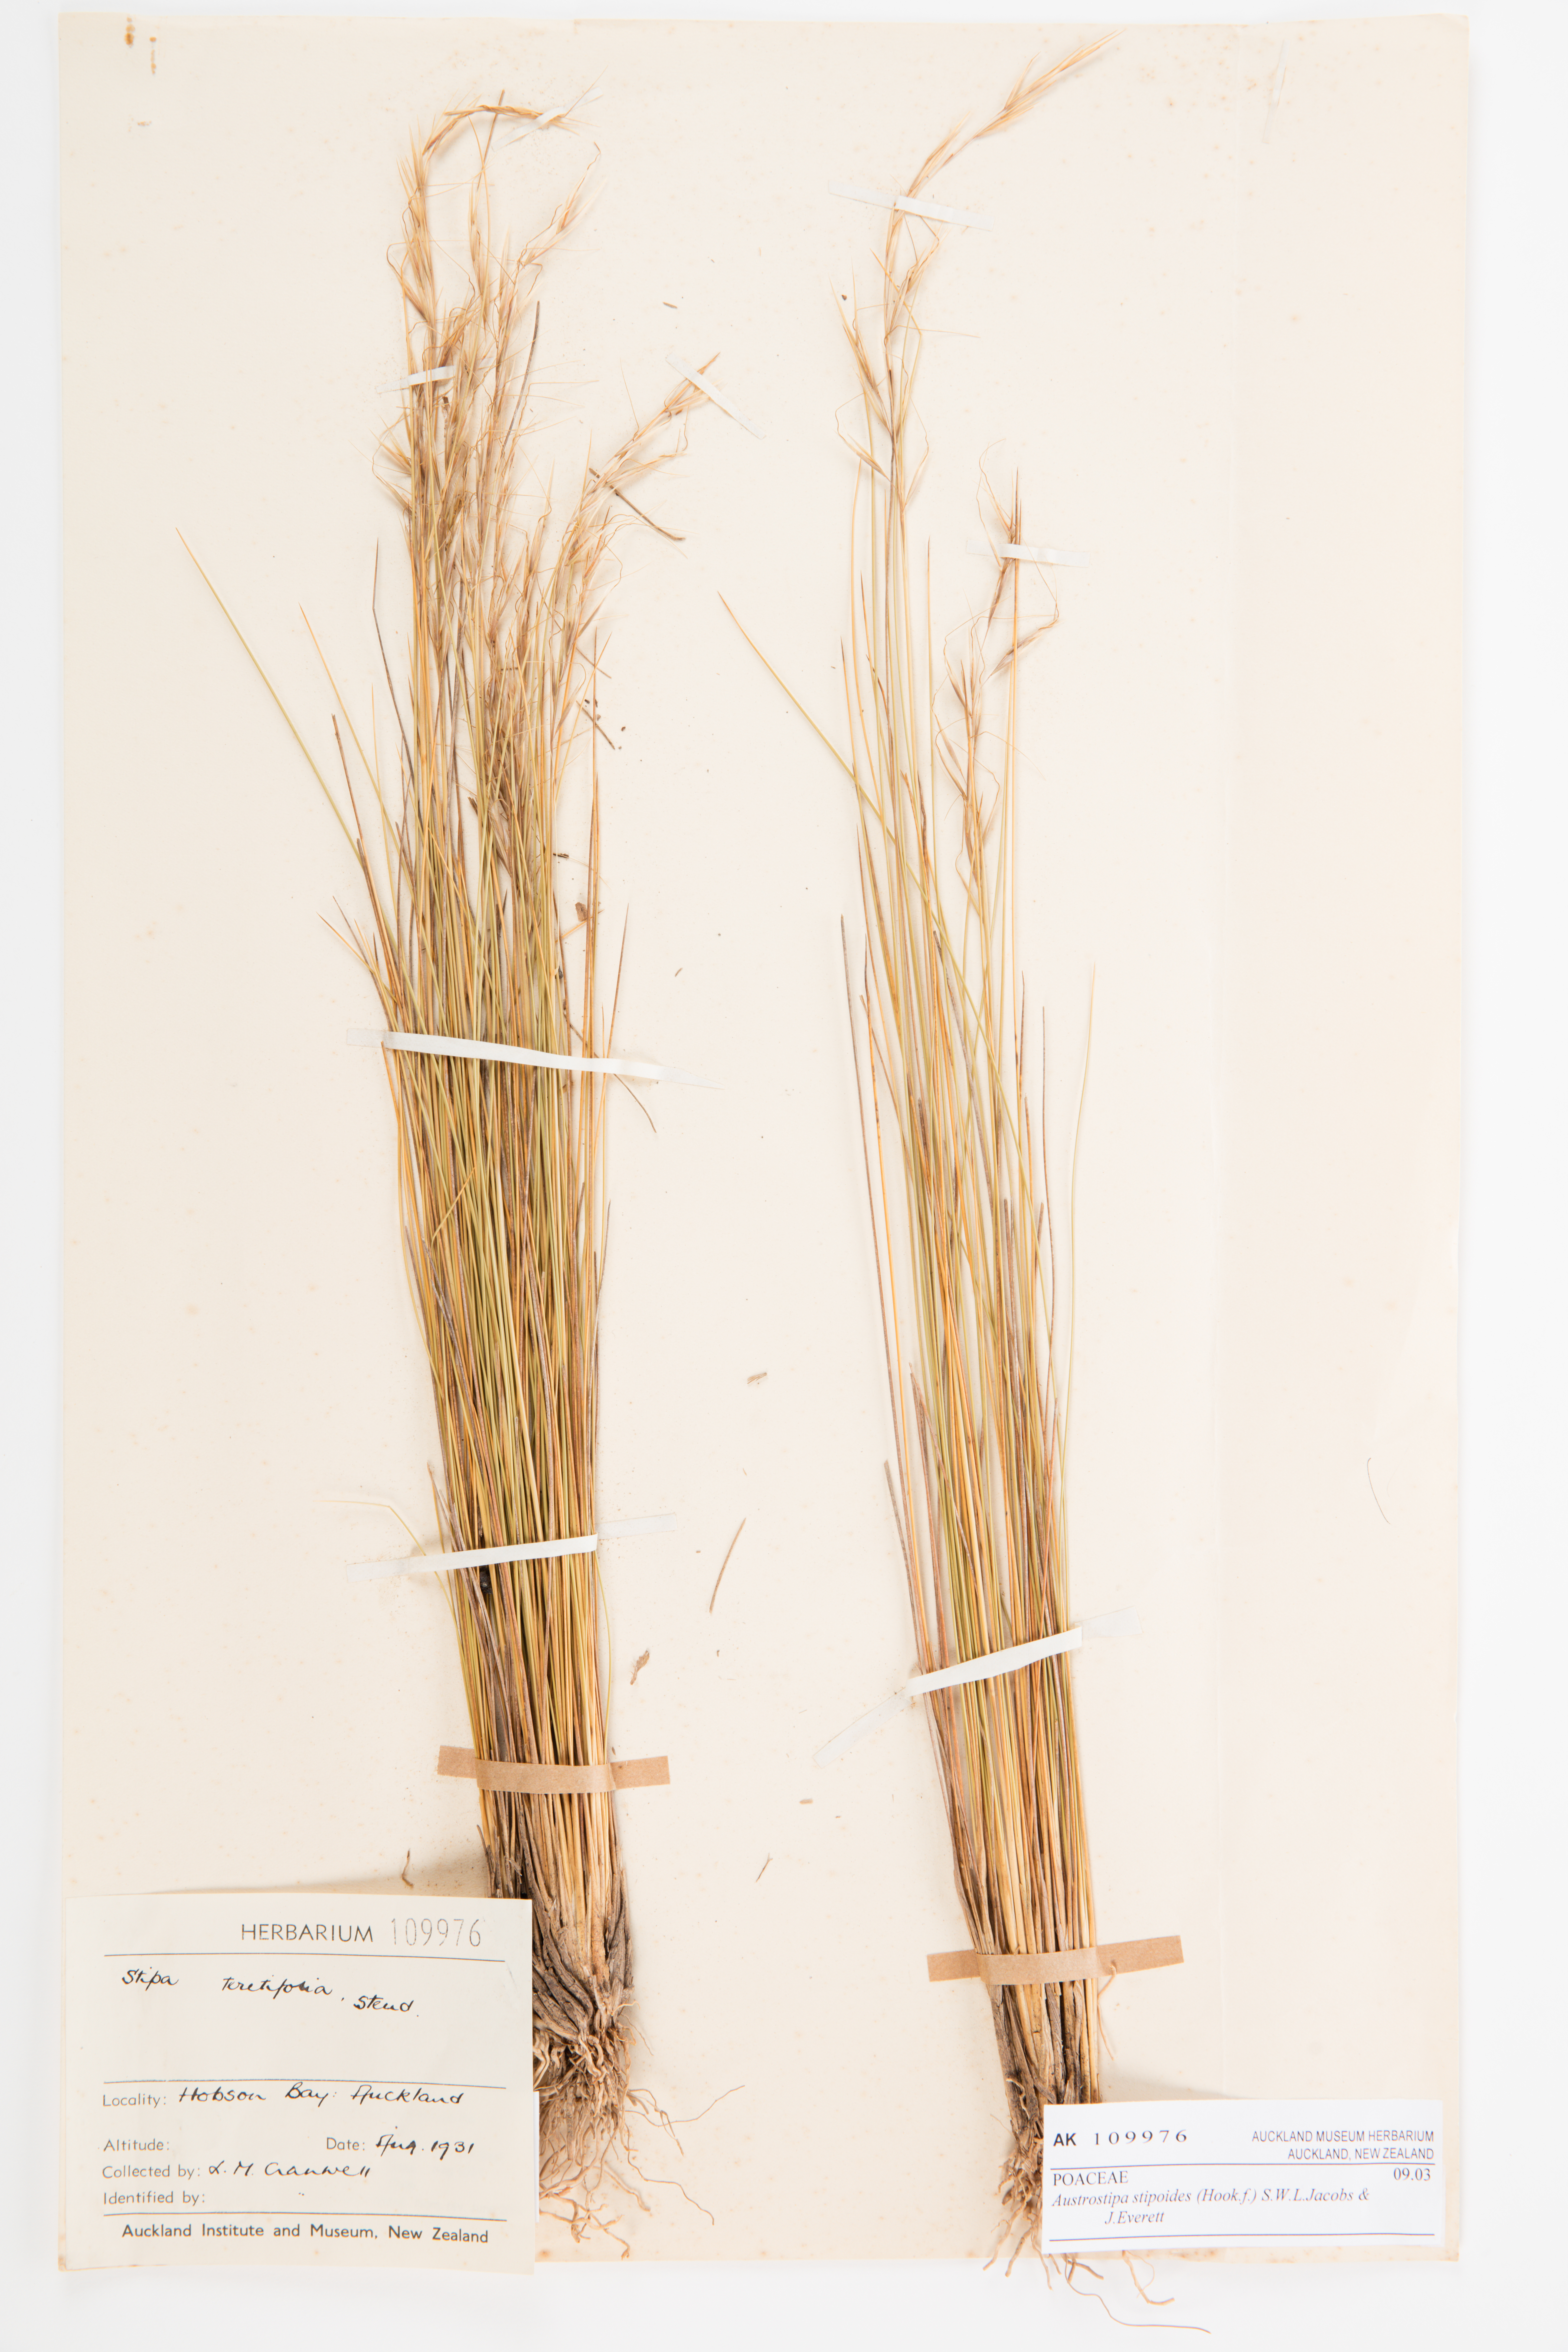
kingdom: Plantae
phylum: Tracheophyta
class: Liliopsida
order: Poales
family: Poaceae
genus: Austrostipa
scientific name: Austrostipa stipoides
